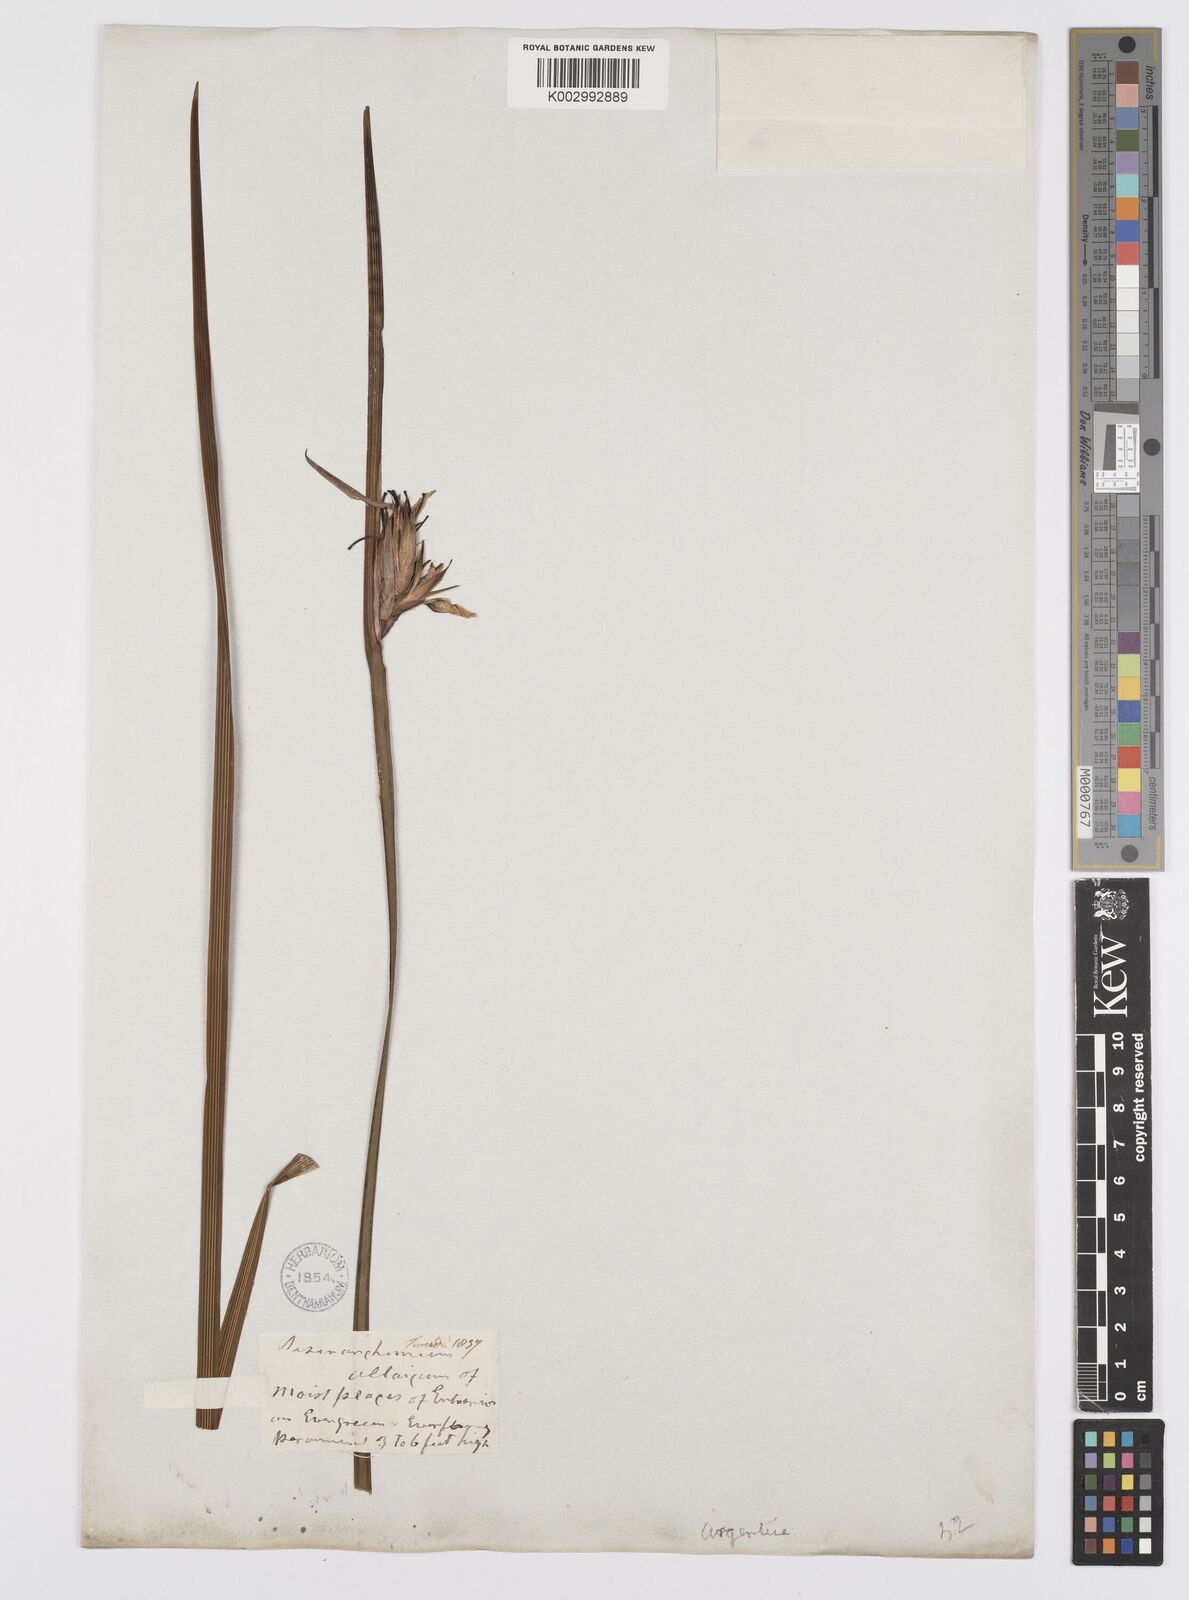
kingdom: Plantae
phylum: Tracheophyta
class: Liliopsida
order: Asparagales
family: Iridaceae
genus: Sisyrinchium
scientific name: Sisyrinchium palmifolium
